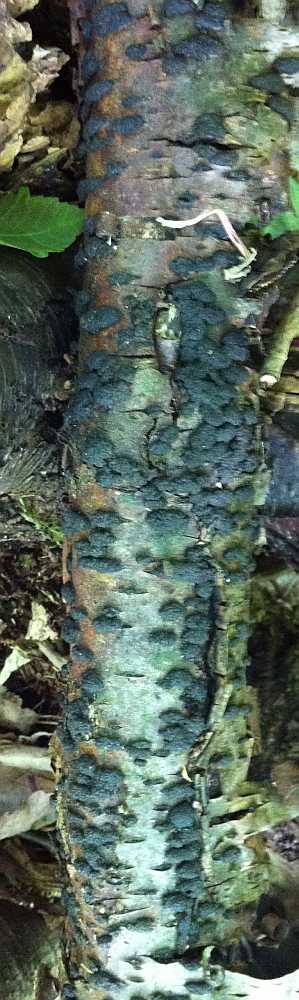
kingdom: Fungi
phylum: Ascomycota
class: Sordariomycetes
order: Xylariales
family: Hypoxylaceae
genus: Jackrogersella
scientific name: Jackrogersella multiformis
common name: foranderlig kulbær
